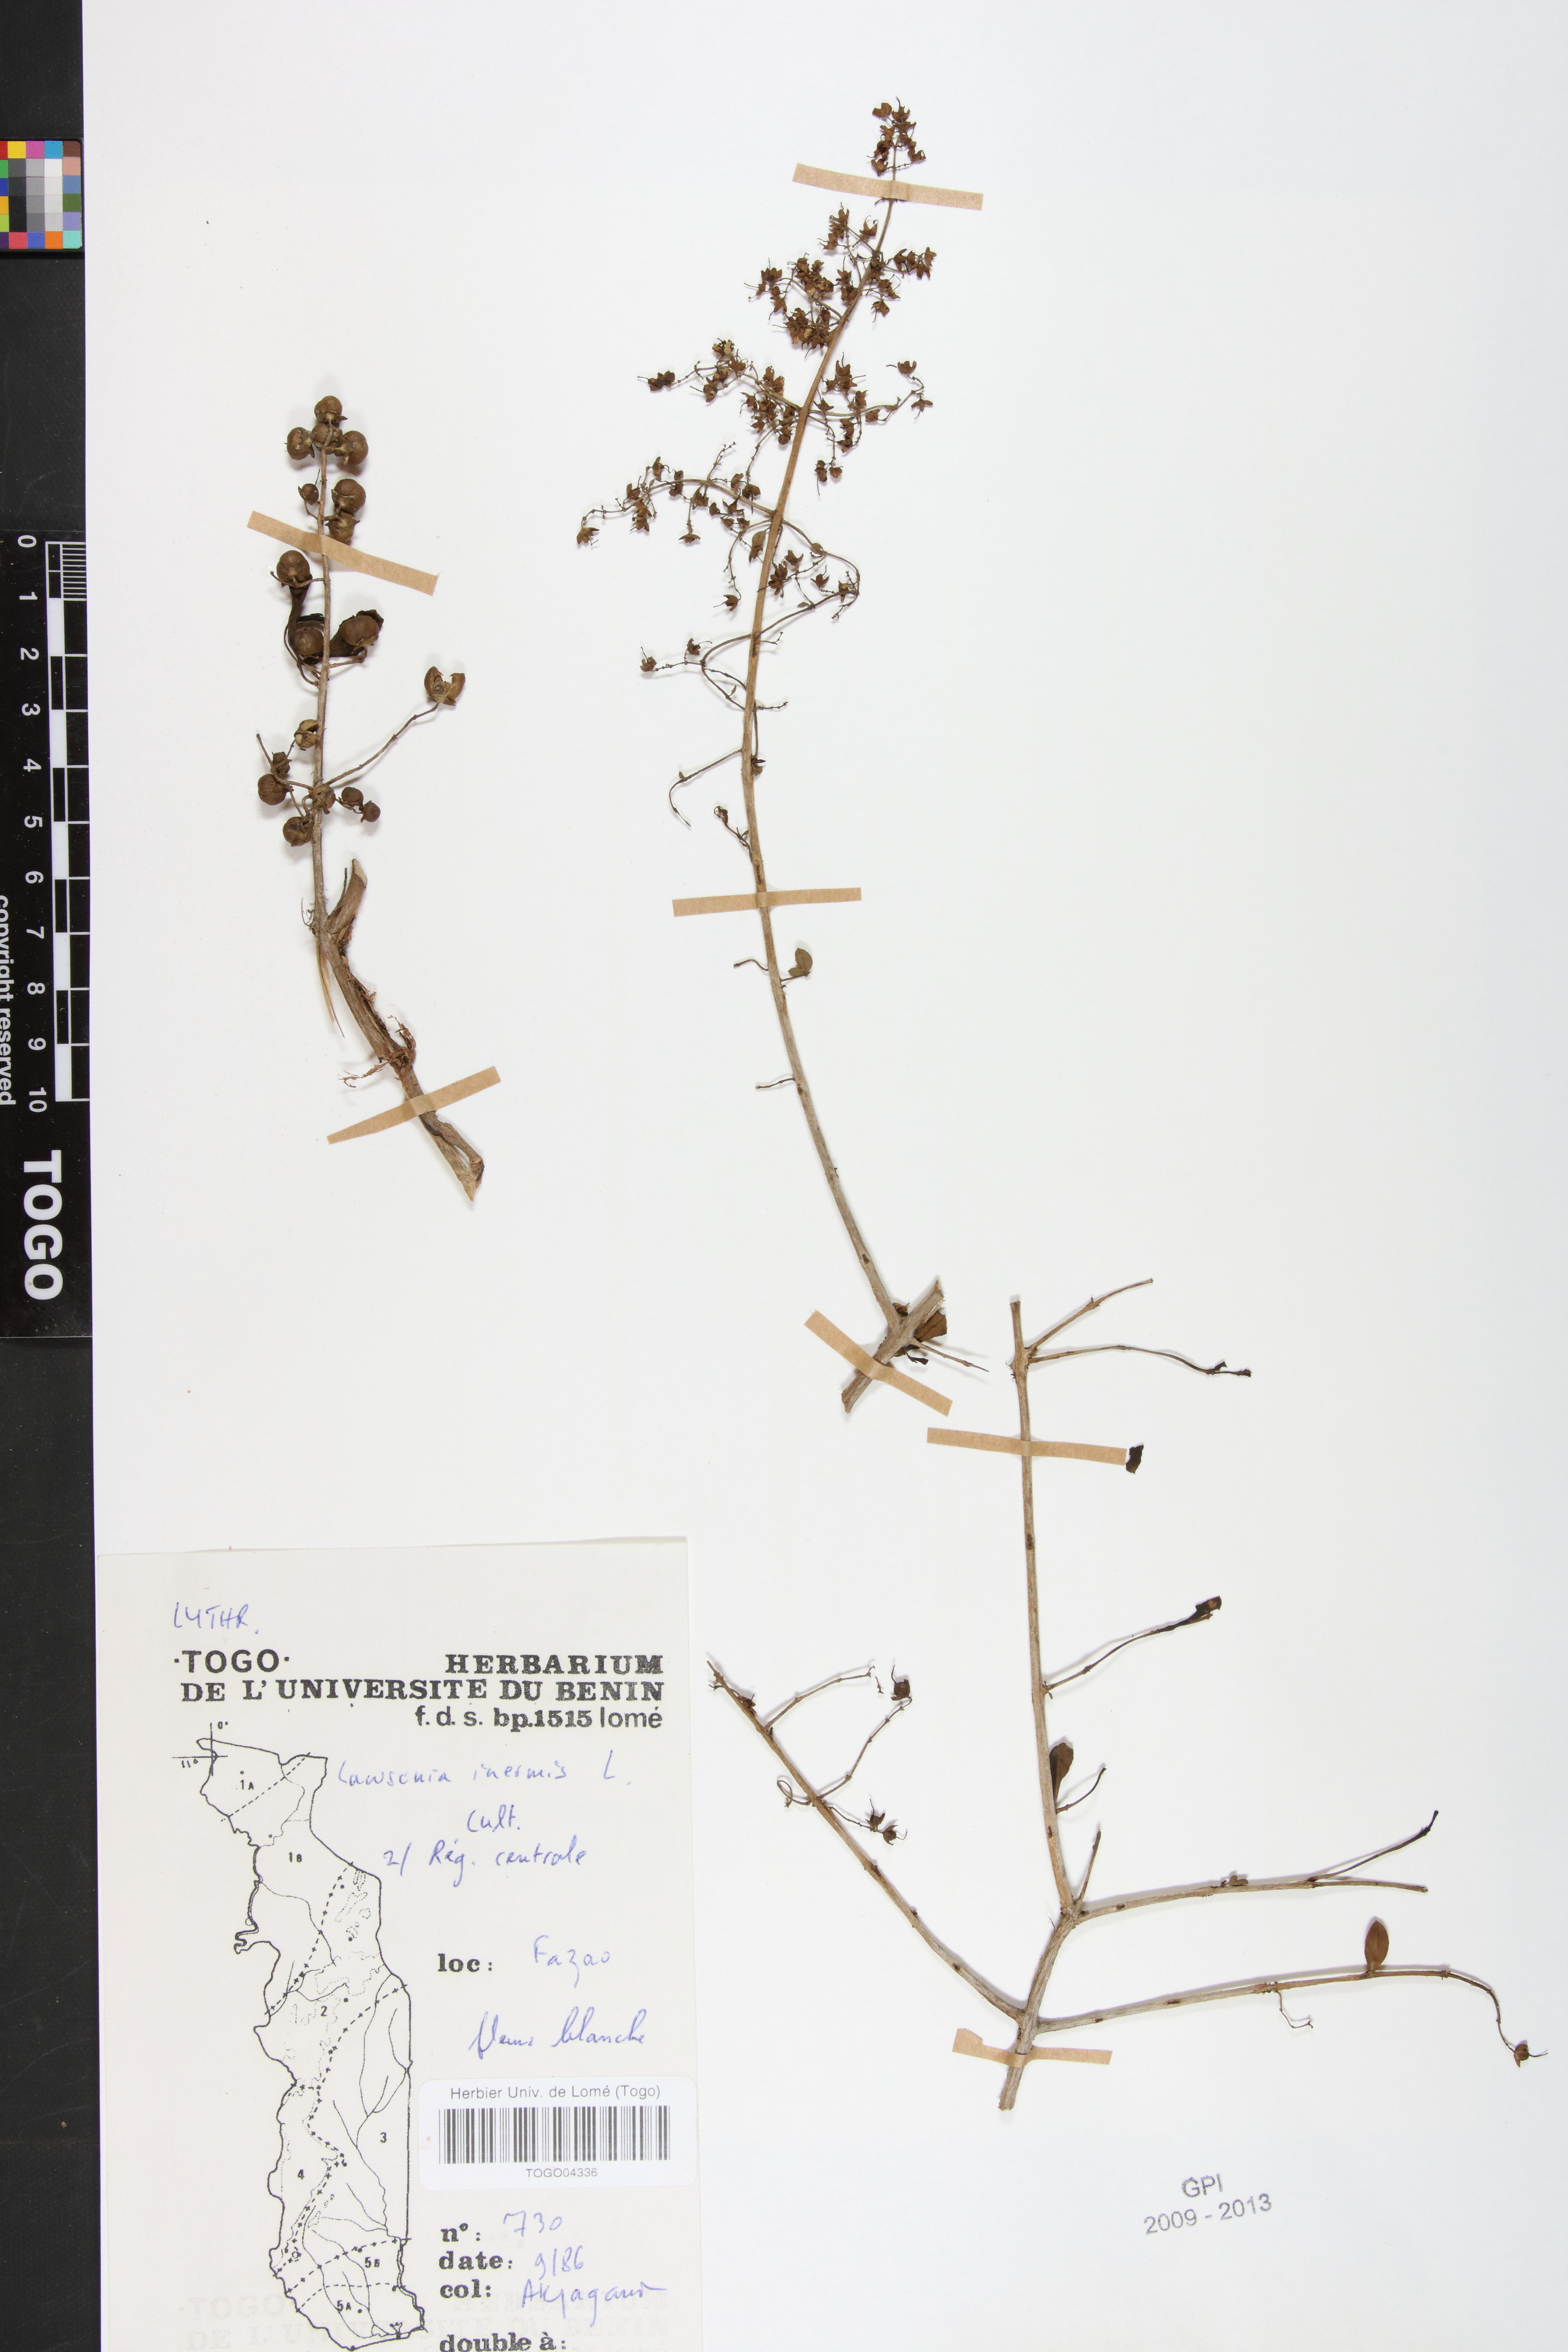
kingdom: Plantae
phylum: Tracheophyta
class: Magnoliopsida
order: Myrtales
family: Lythraceae
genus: Lawsonia
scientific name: Lawsonia inermis
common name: Henna
